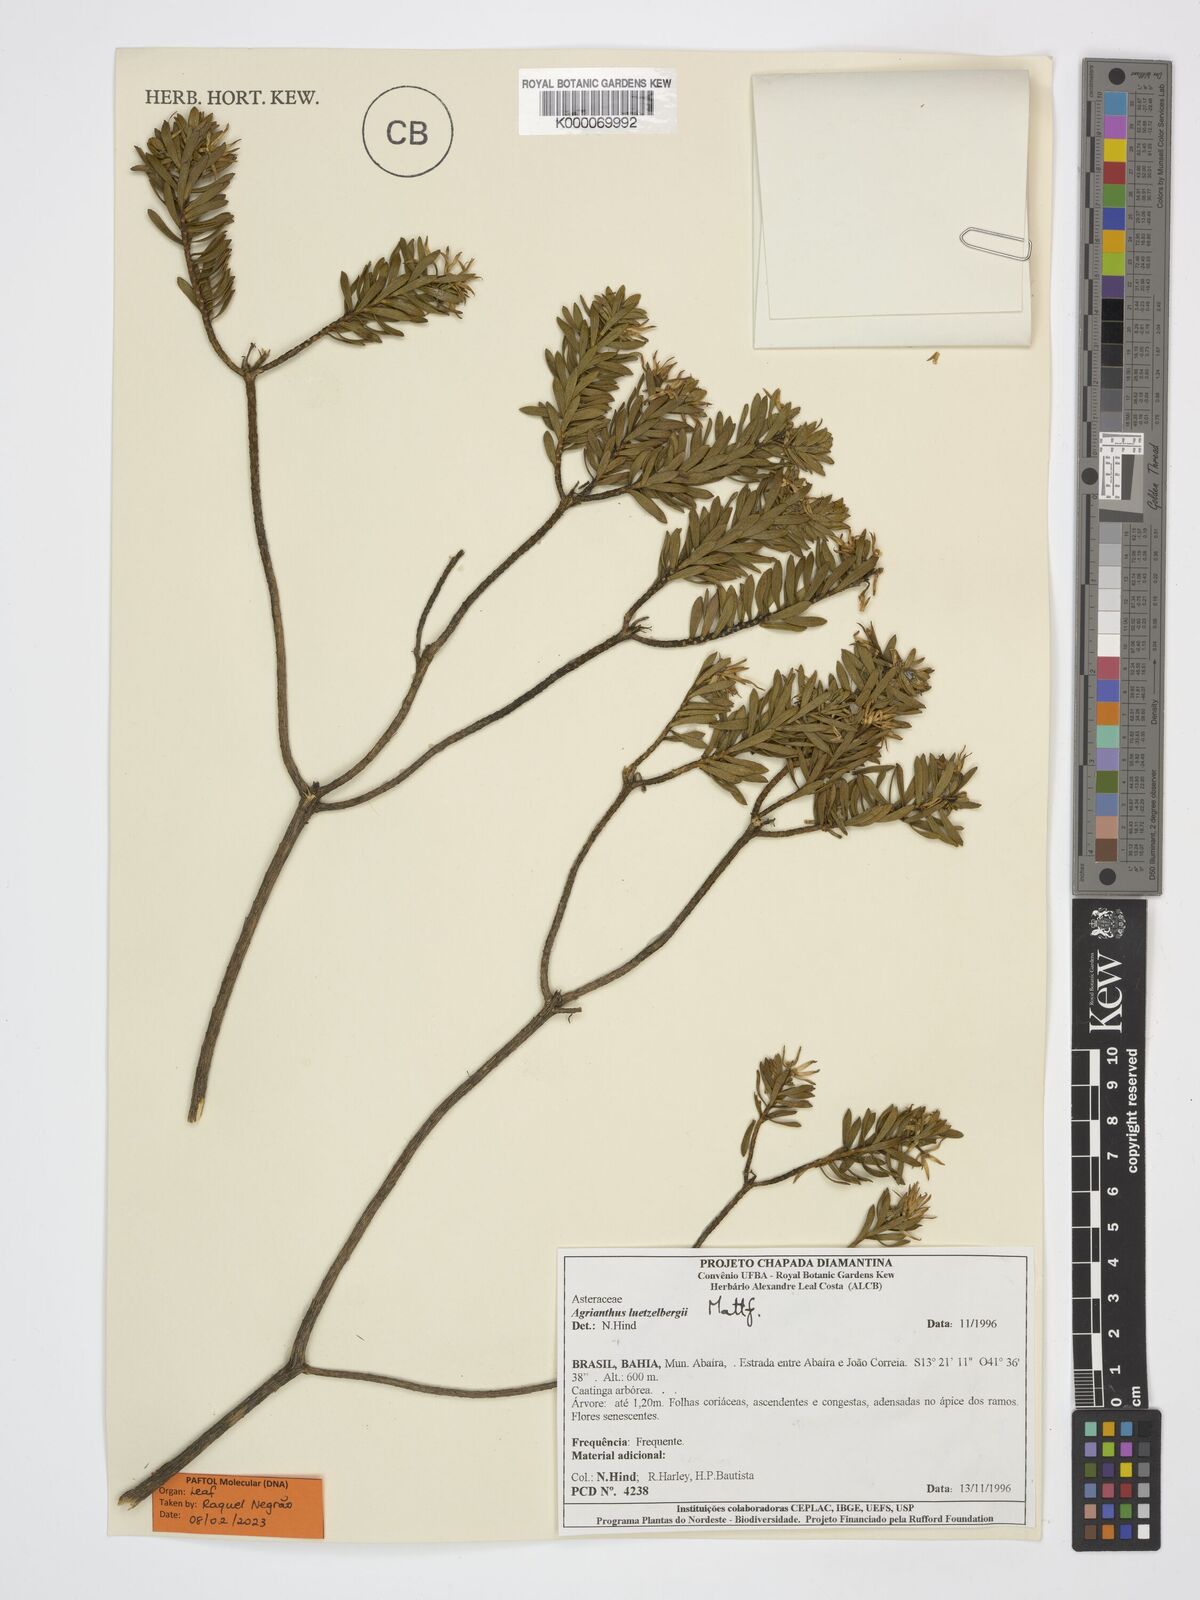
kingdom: Plantae
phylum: Tracheophyta
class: Magnoliopsida
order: Asterales
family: Asteraceae
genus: Agrianthus
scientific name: Agrianthus leutzelburgii
